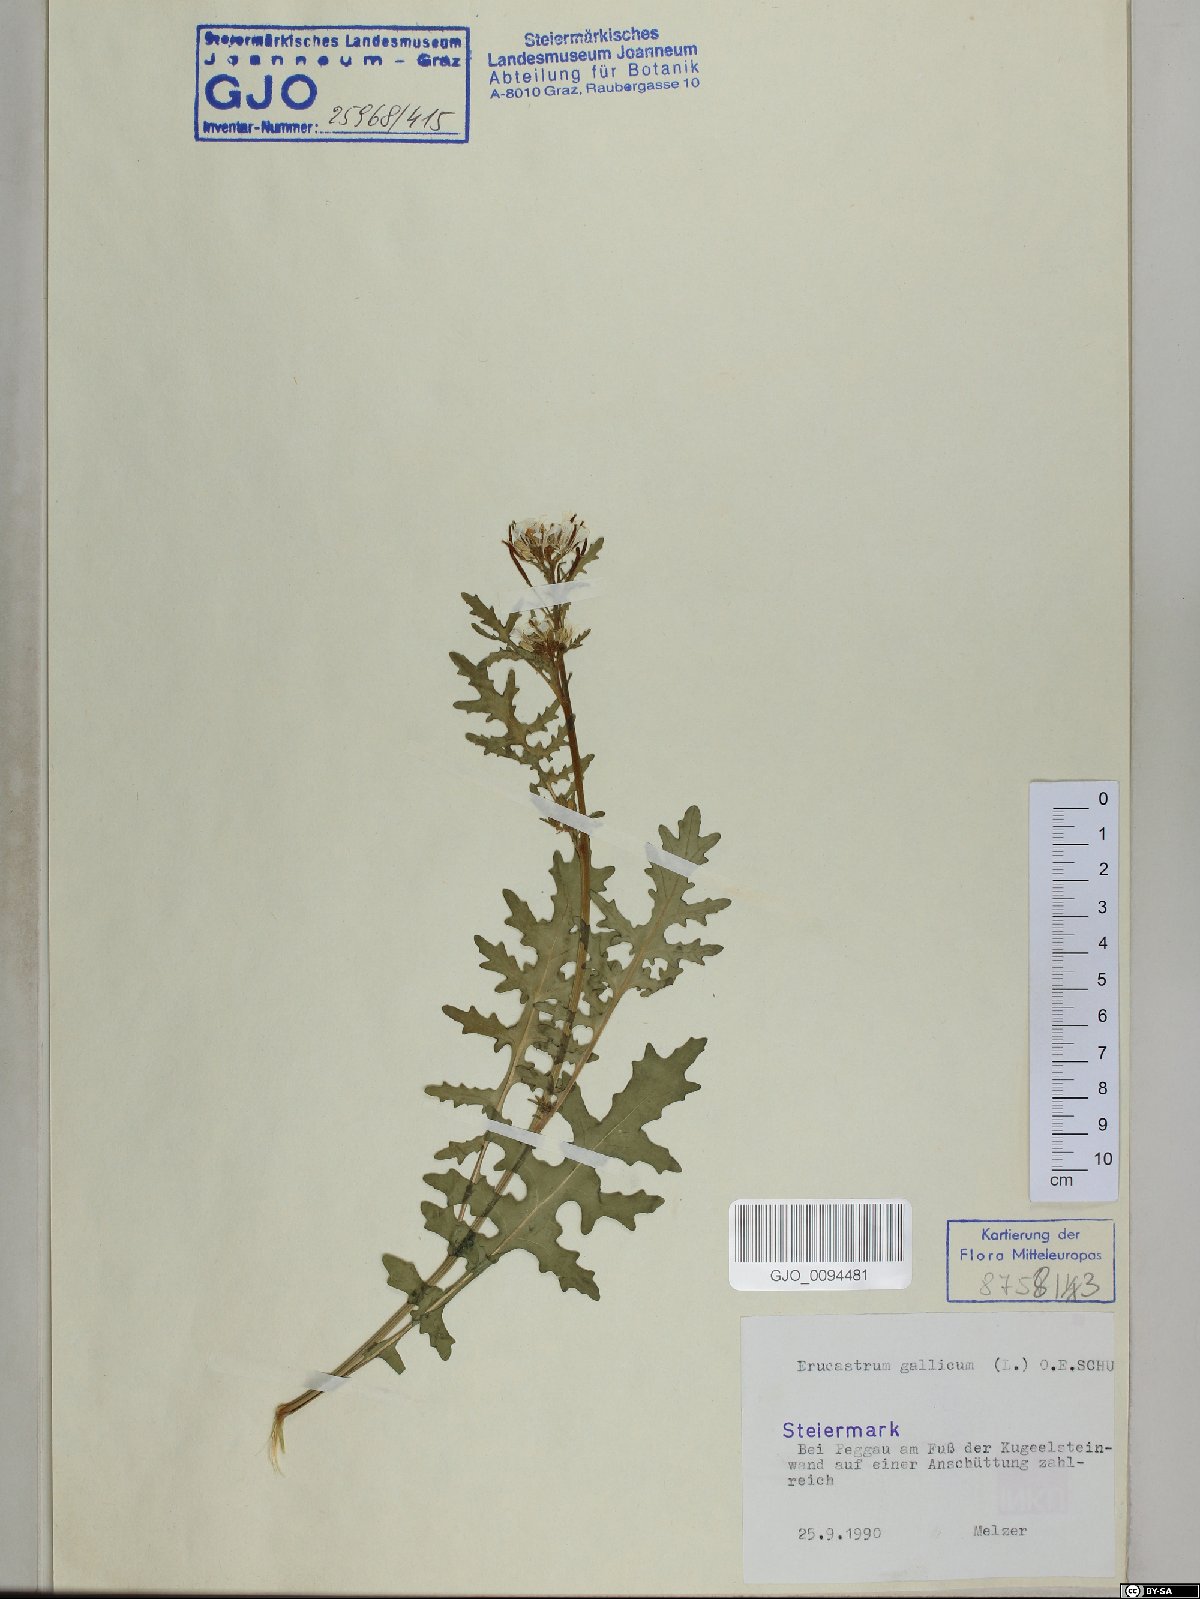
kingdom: Plantae
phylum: Tracheophyta
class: Magnoliopsida
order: Brassicales
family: Brassicaceae
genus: Erucastrum
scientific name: Erucastrum gallicum
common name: Hairy rocket
